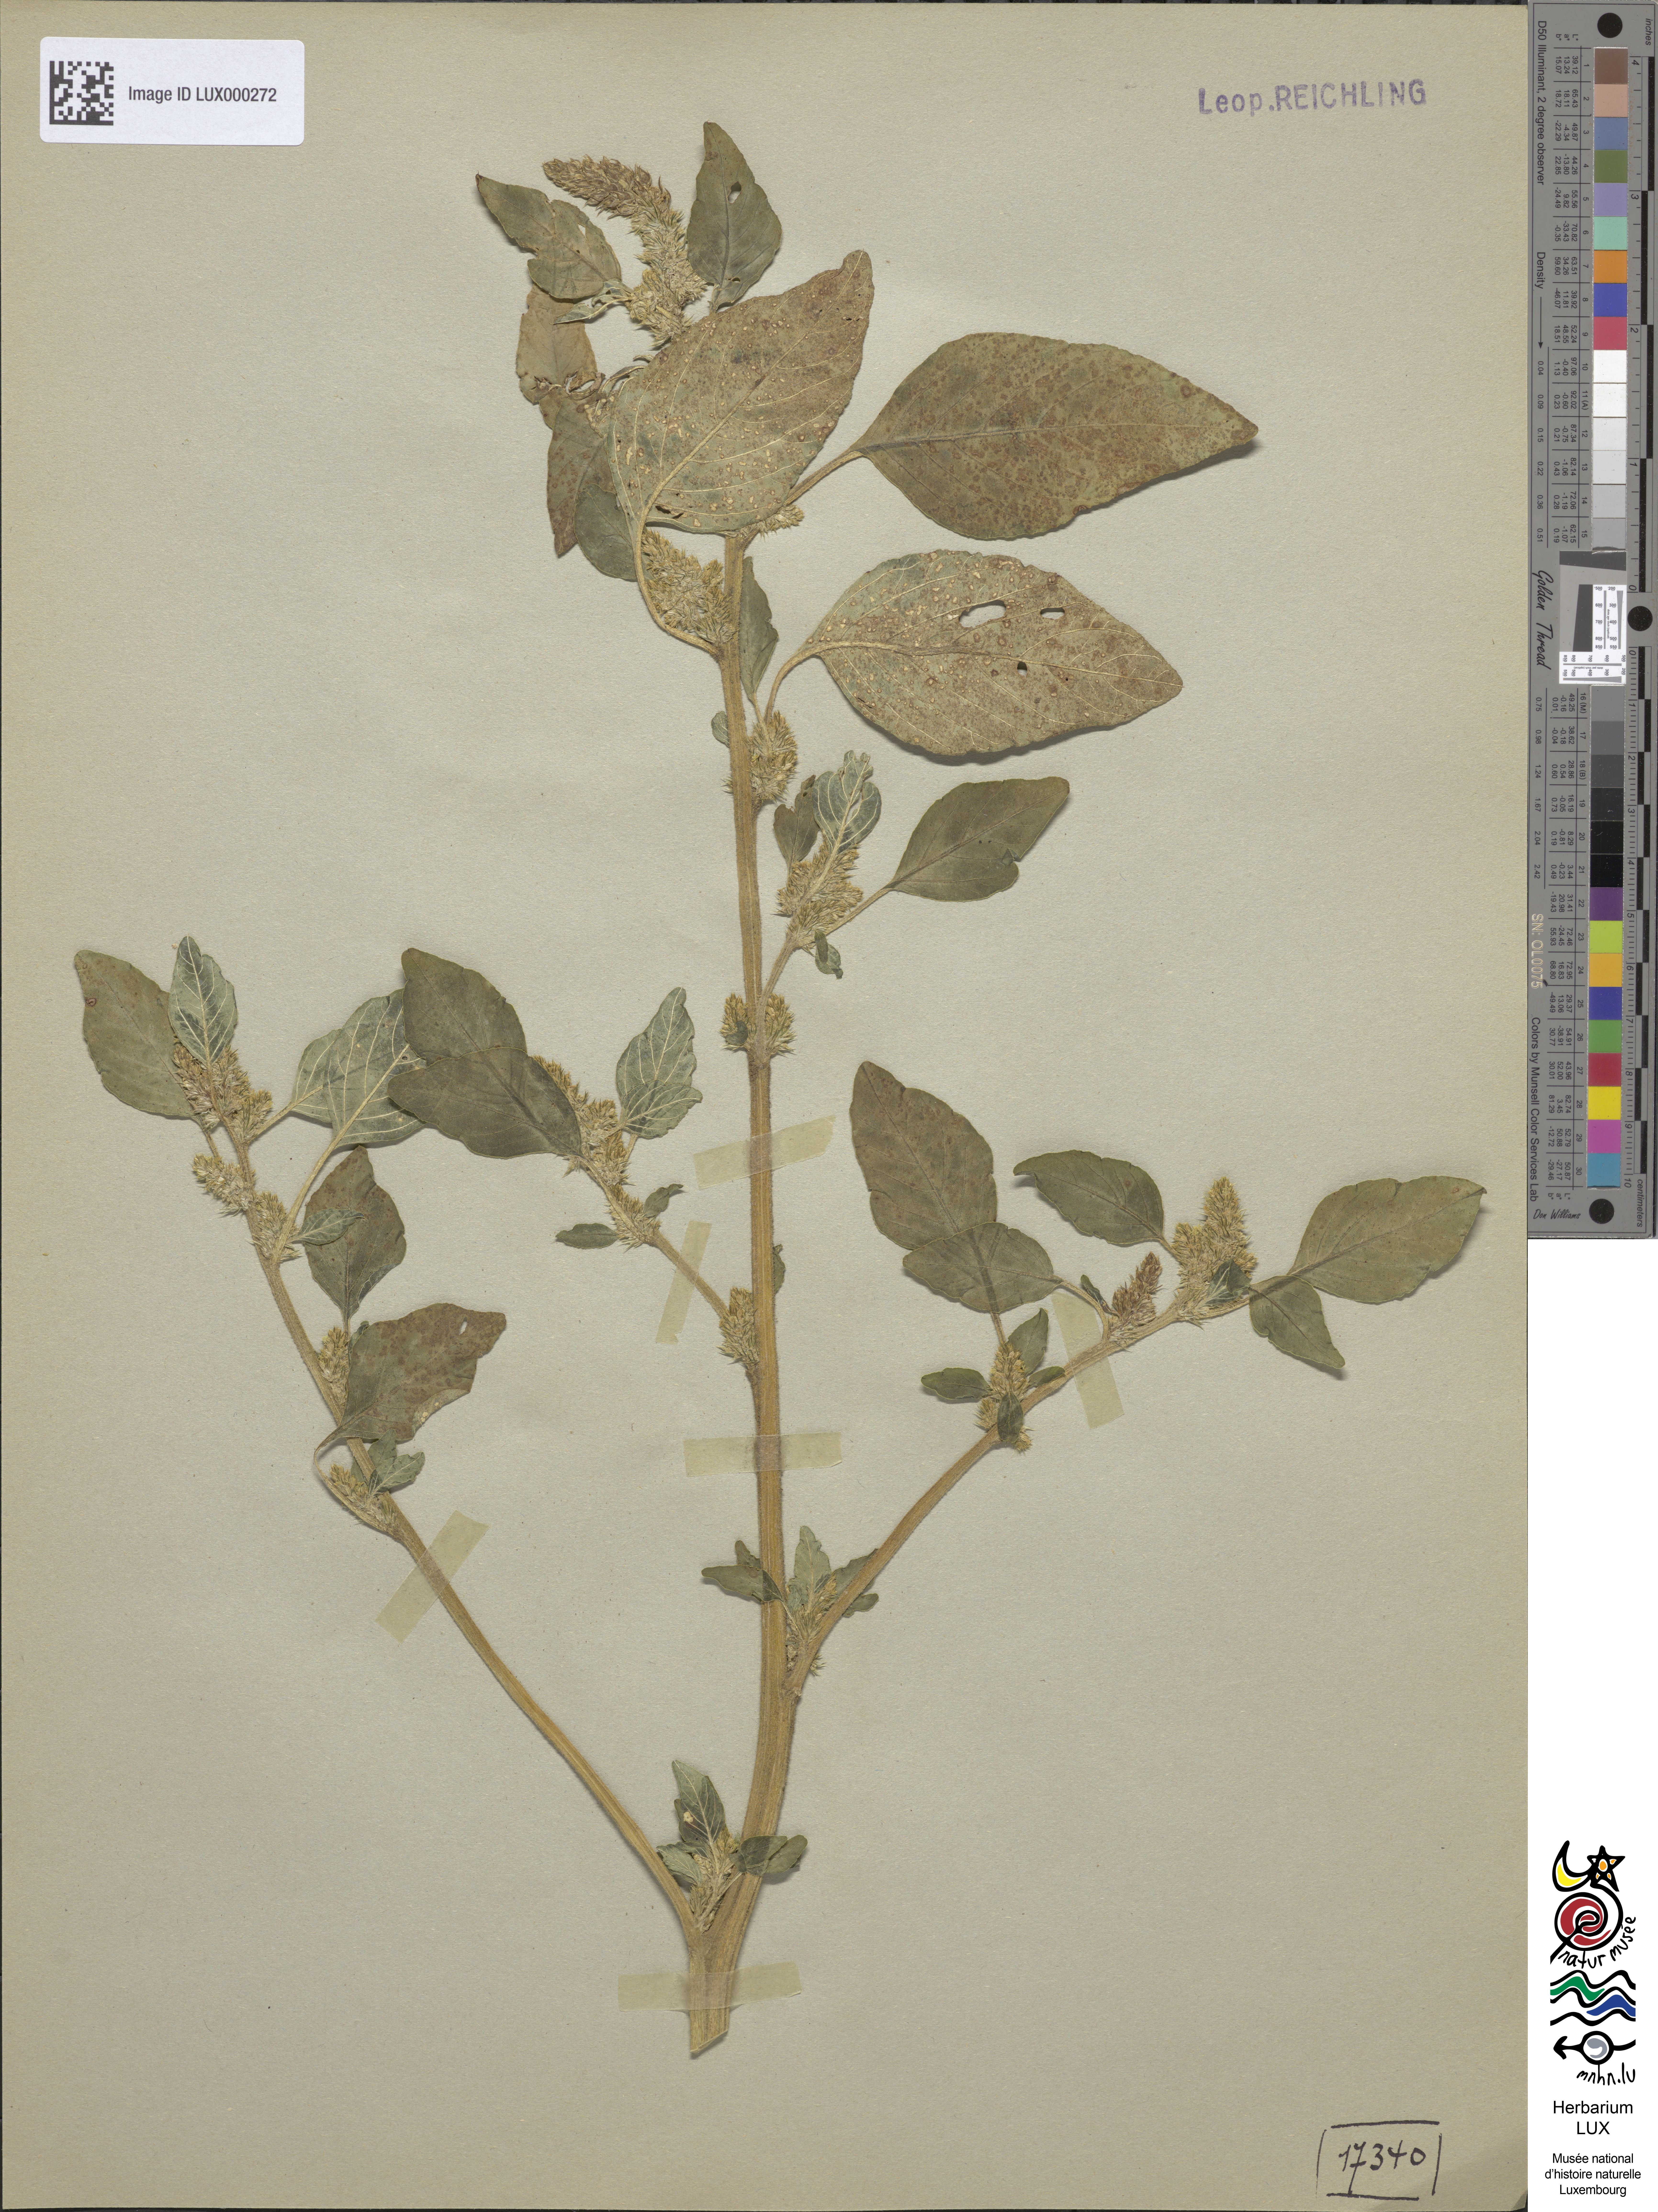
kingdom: Plantae
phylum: Tracheophyta
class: Magnoliopsida
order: Caryophyllales
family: Amaranthaceae
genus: Amaranthus
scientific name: Amaranthus retroflexus
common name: Redroot amaranth
